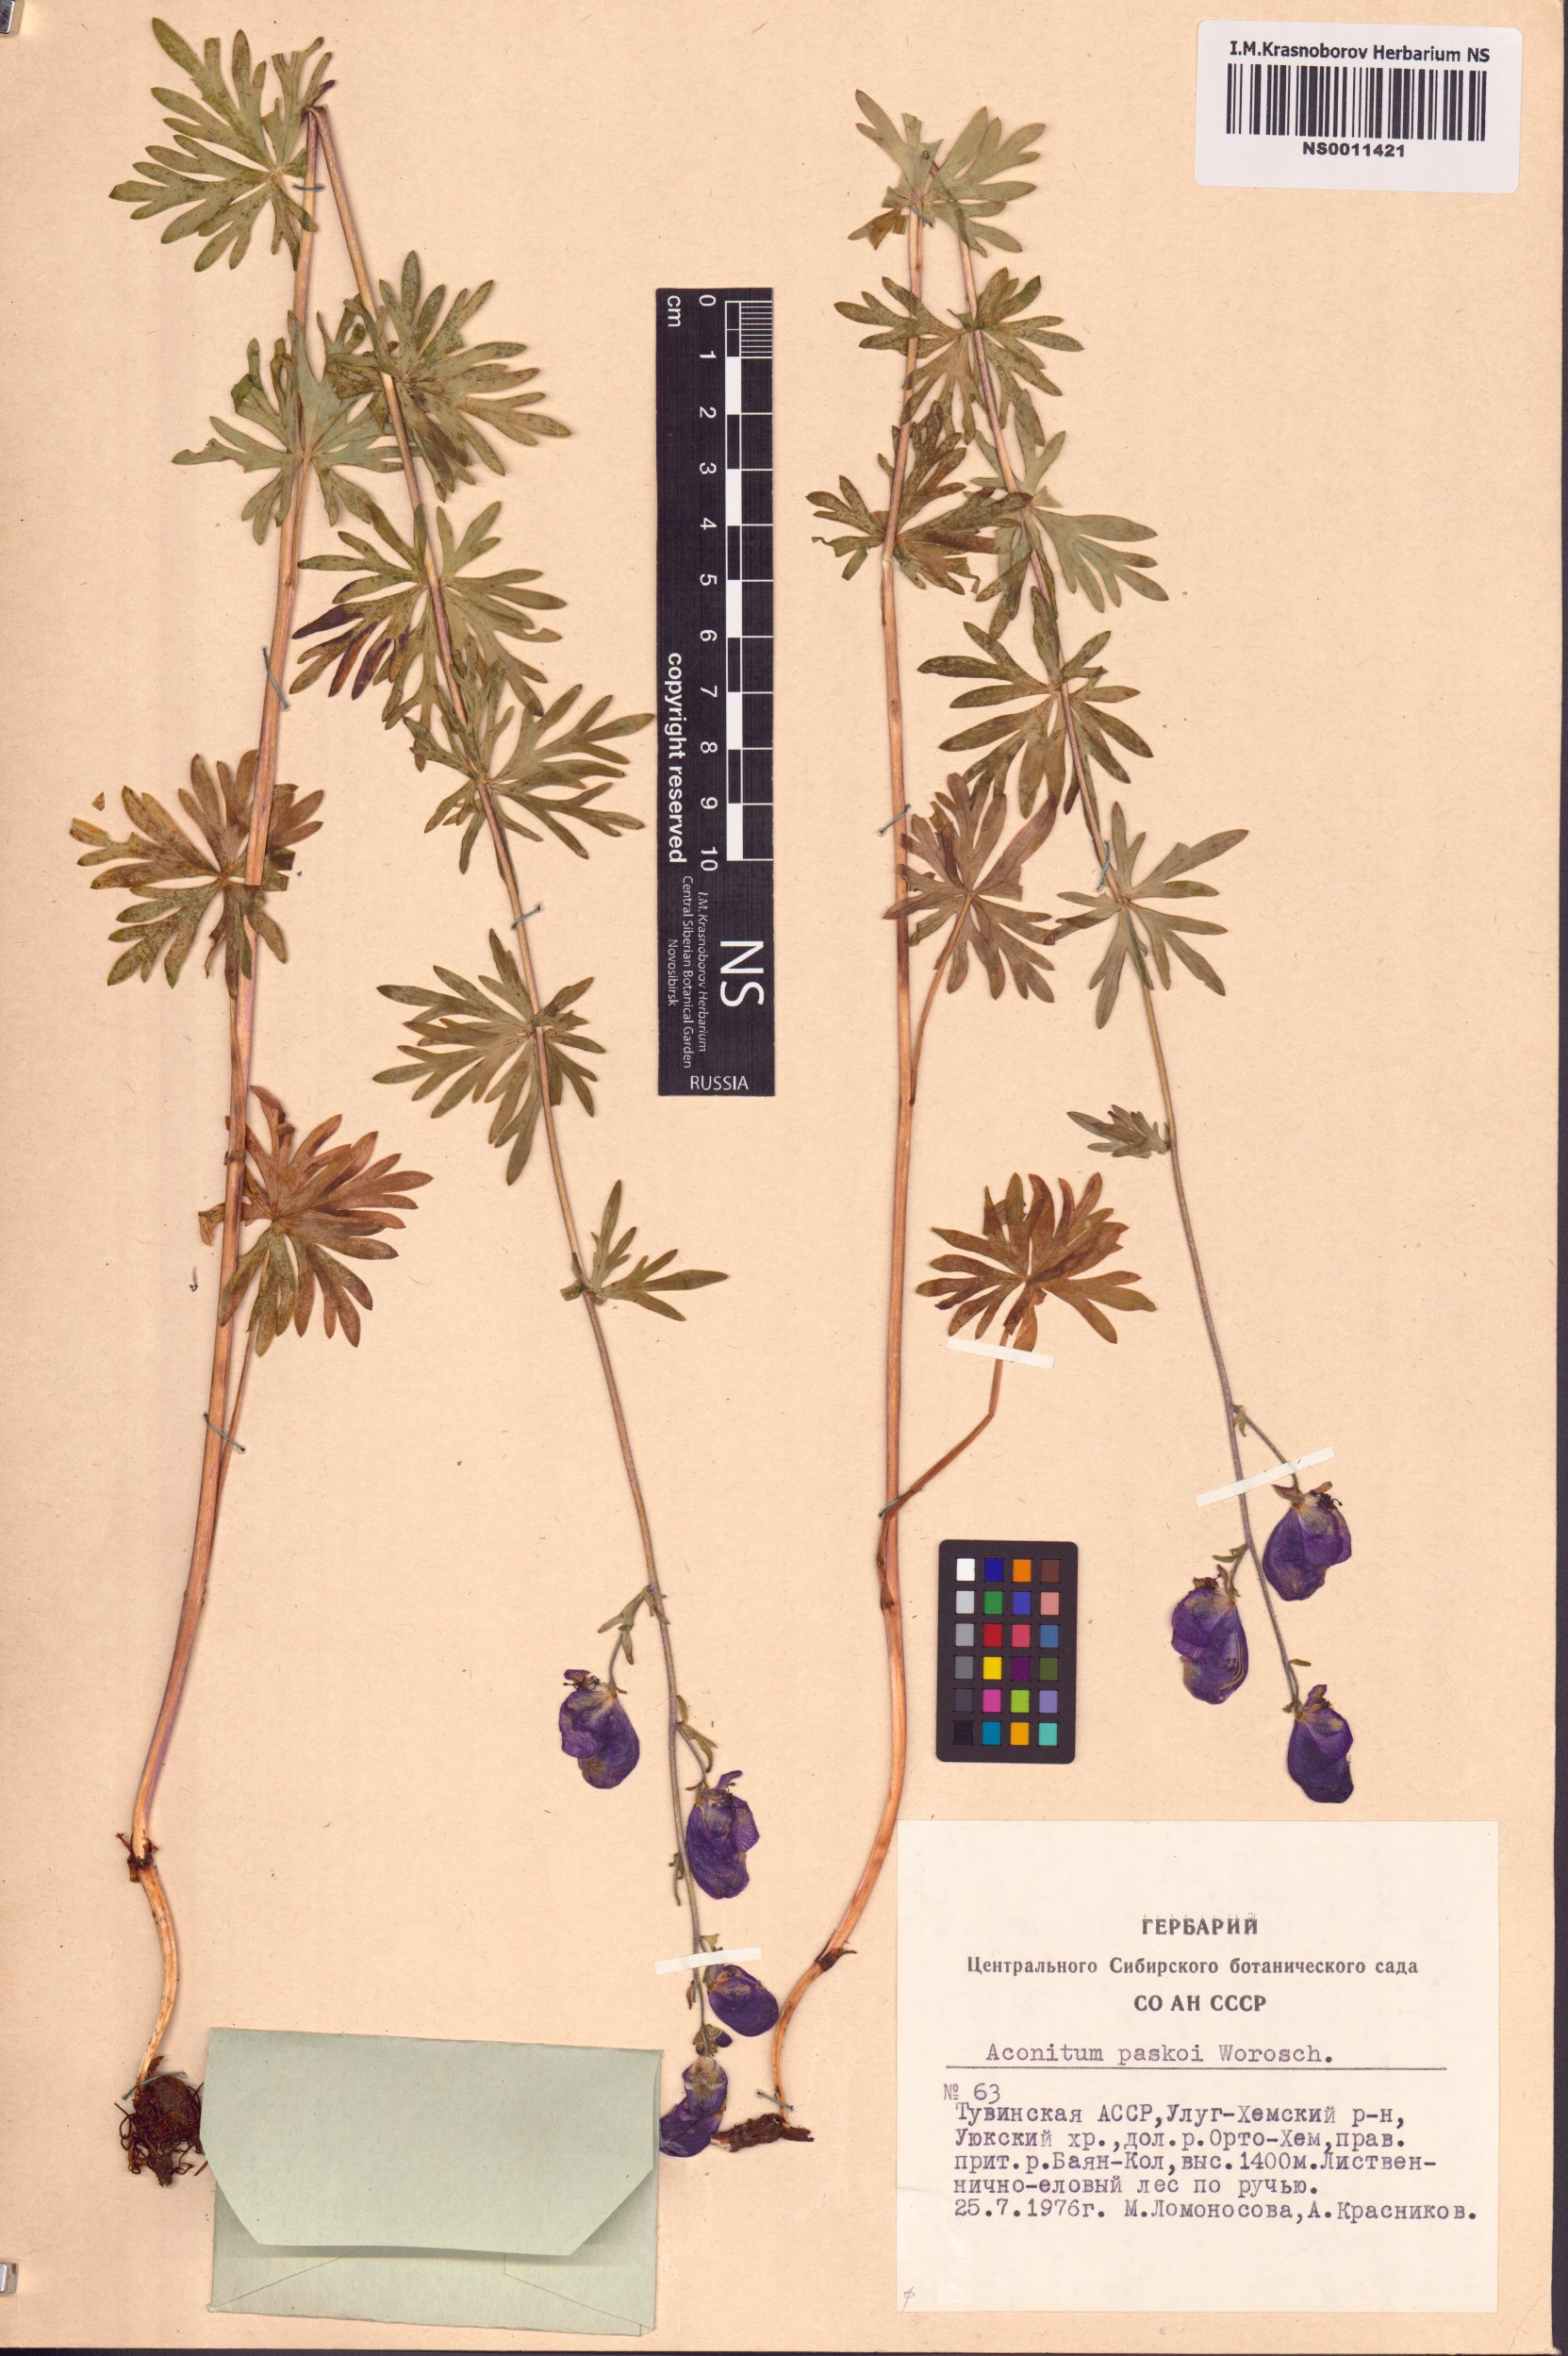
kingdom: Plantae
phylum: Tracheophyta
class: Magnoliopsida
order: Ranunculales
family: Ranunculaceae
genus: Aconitum
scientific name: Aconitum pascoi
